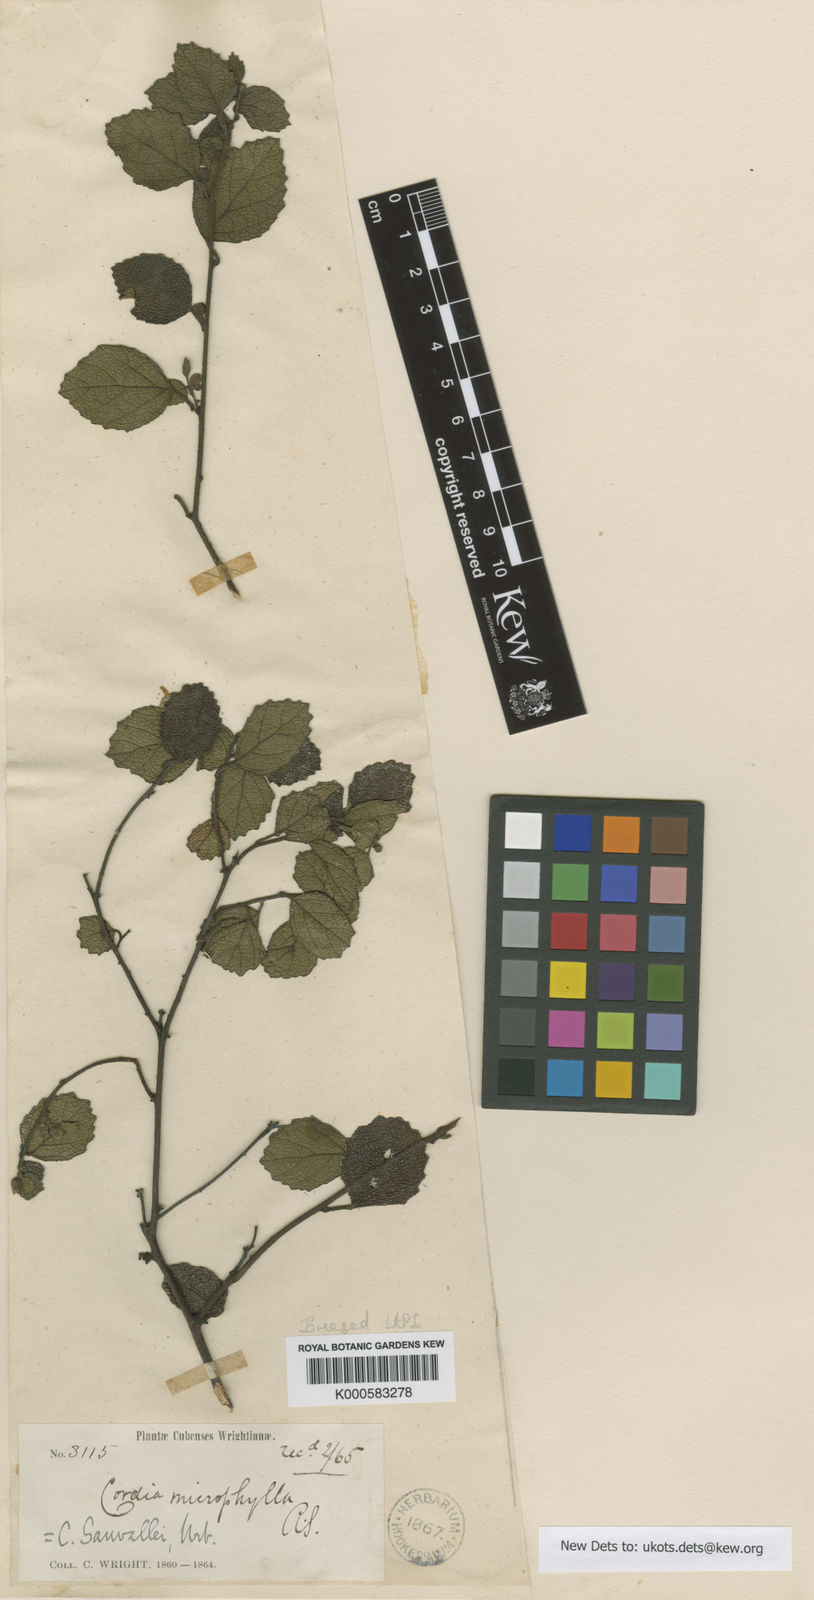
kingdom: Plantae
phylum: Tracheophyta
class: Magnoliopsida
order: Boraginales
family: Cordiaceae
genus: Varronia
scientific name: Varronia sauvallei
